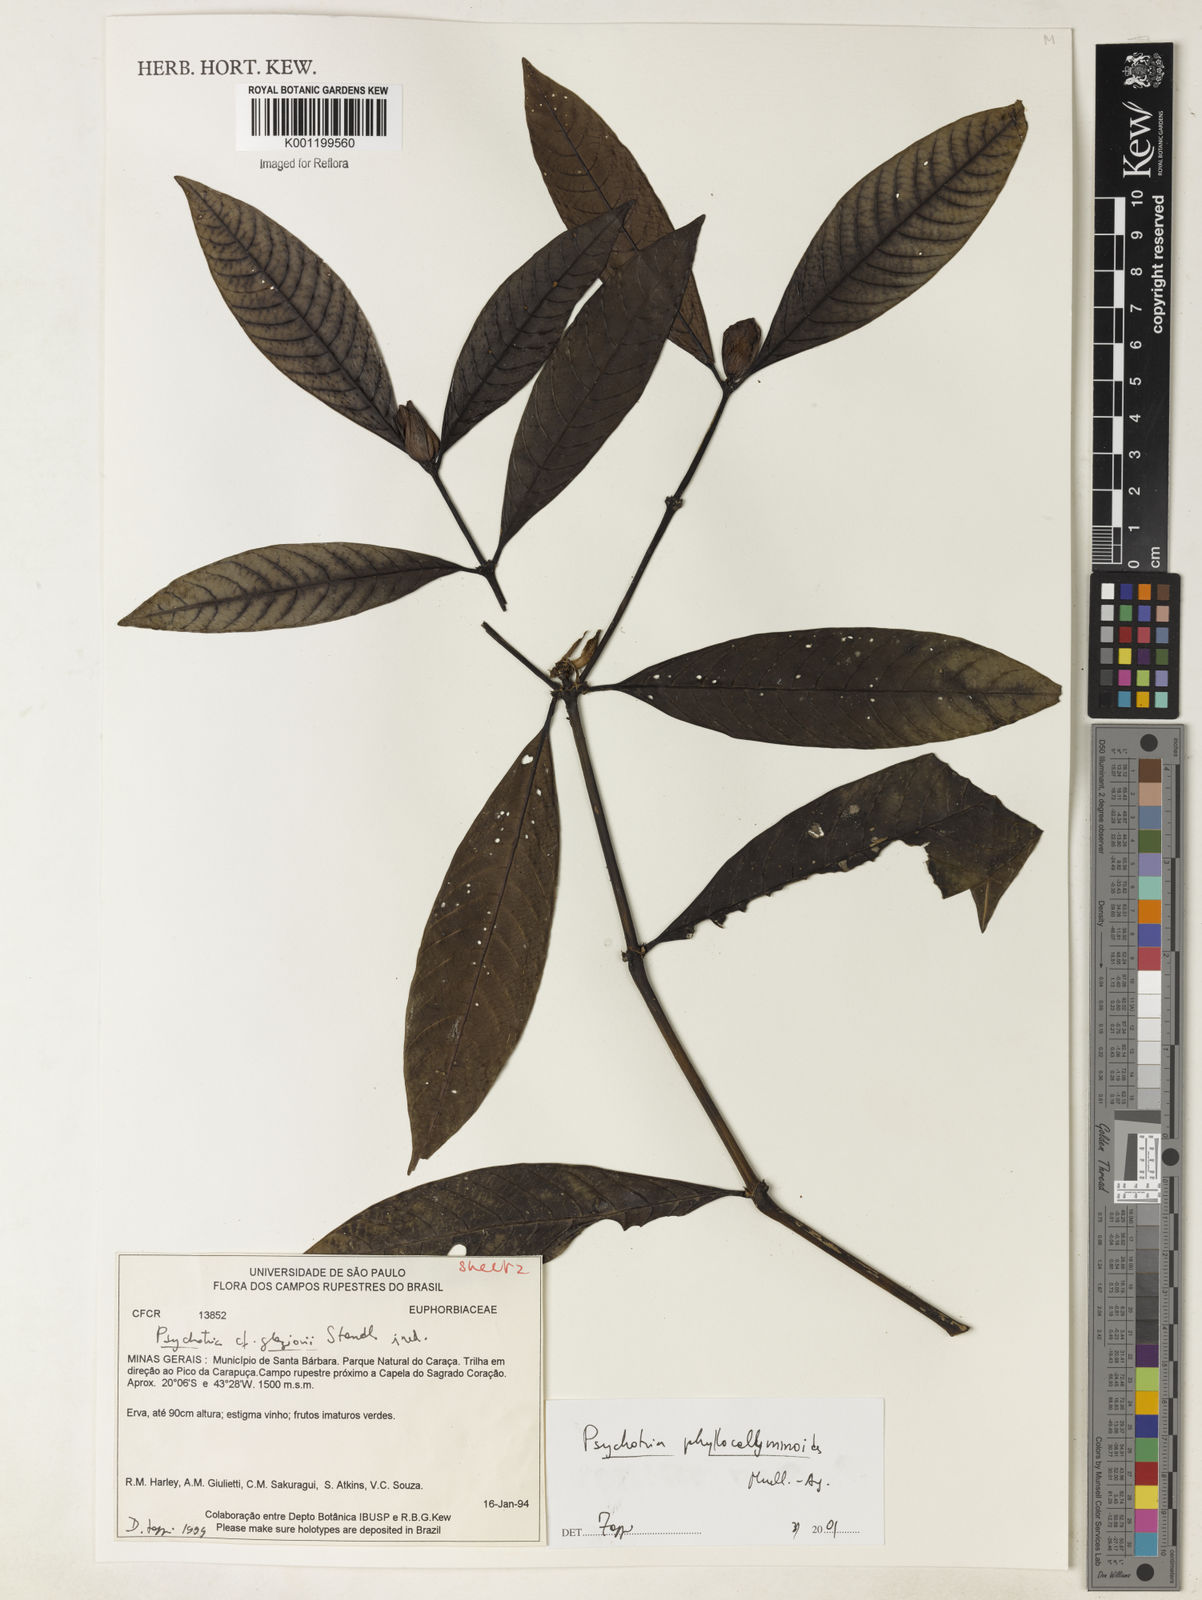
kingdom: Plantae
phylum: Tracheophyta
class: Magnoliopsida
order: Gentianales
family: Rubiaceae
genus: Psychotria
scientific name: Psychotria
